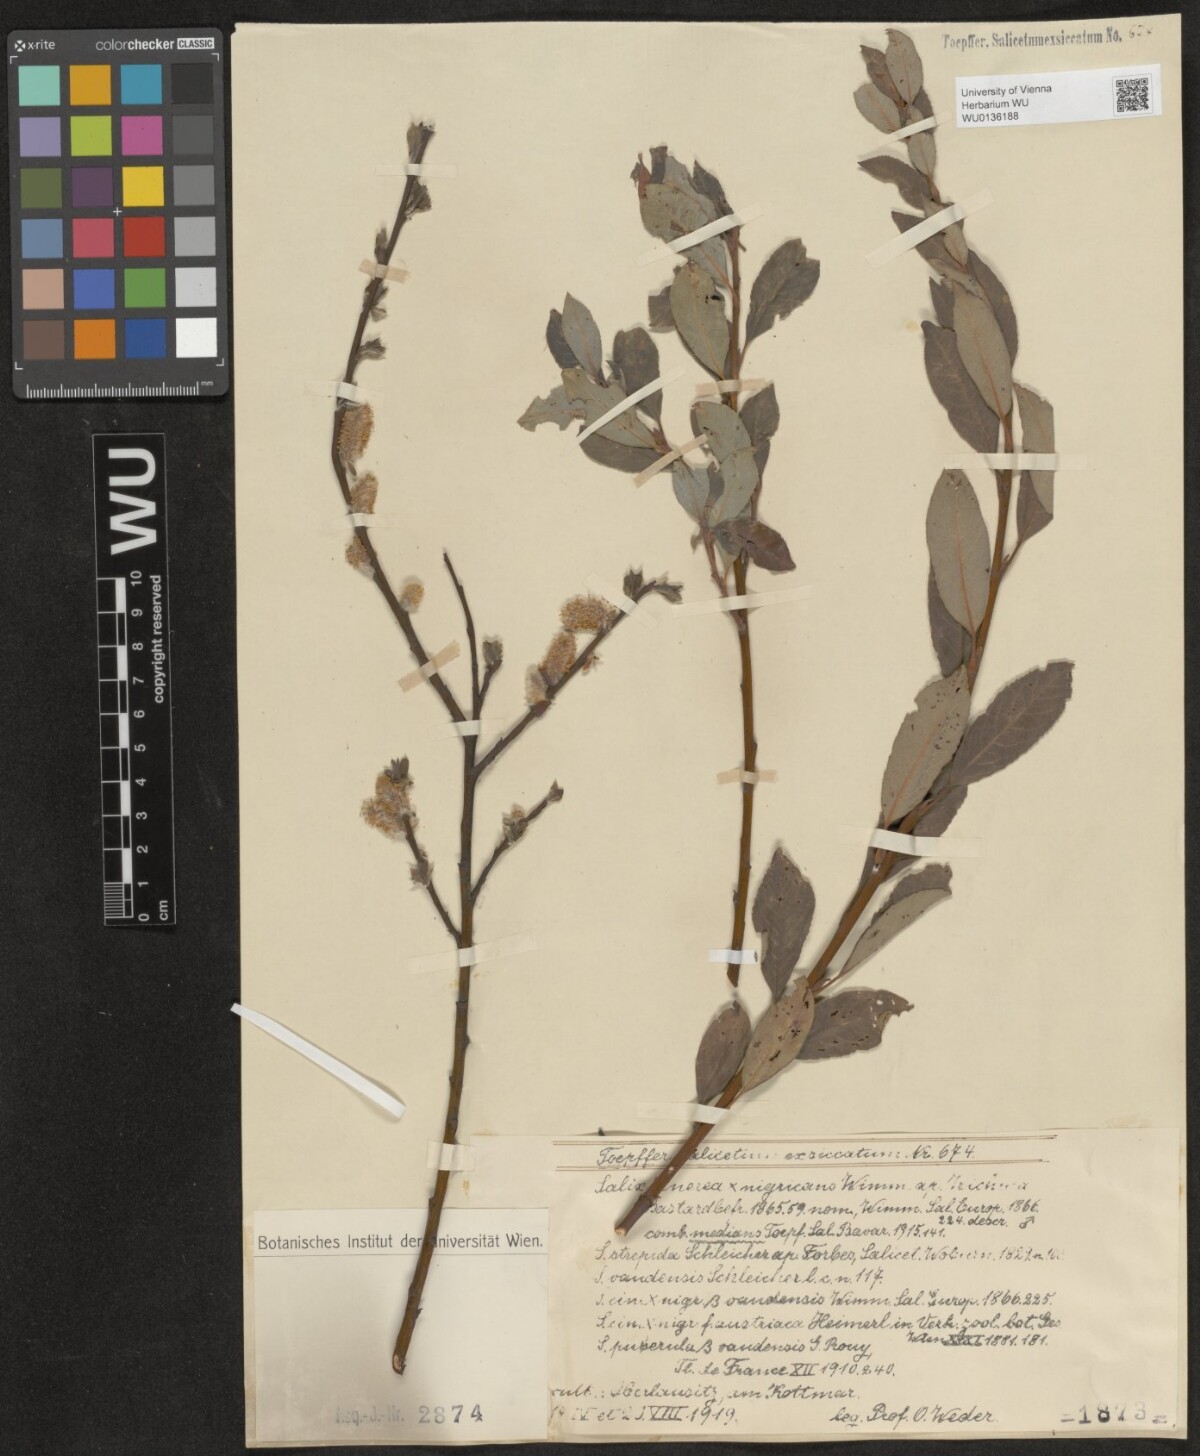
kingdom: Plantae
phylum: Tracheophyta
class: Magnoliopsida
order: Malpighiales
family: Salicaceae
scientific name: Salicaceae
